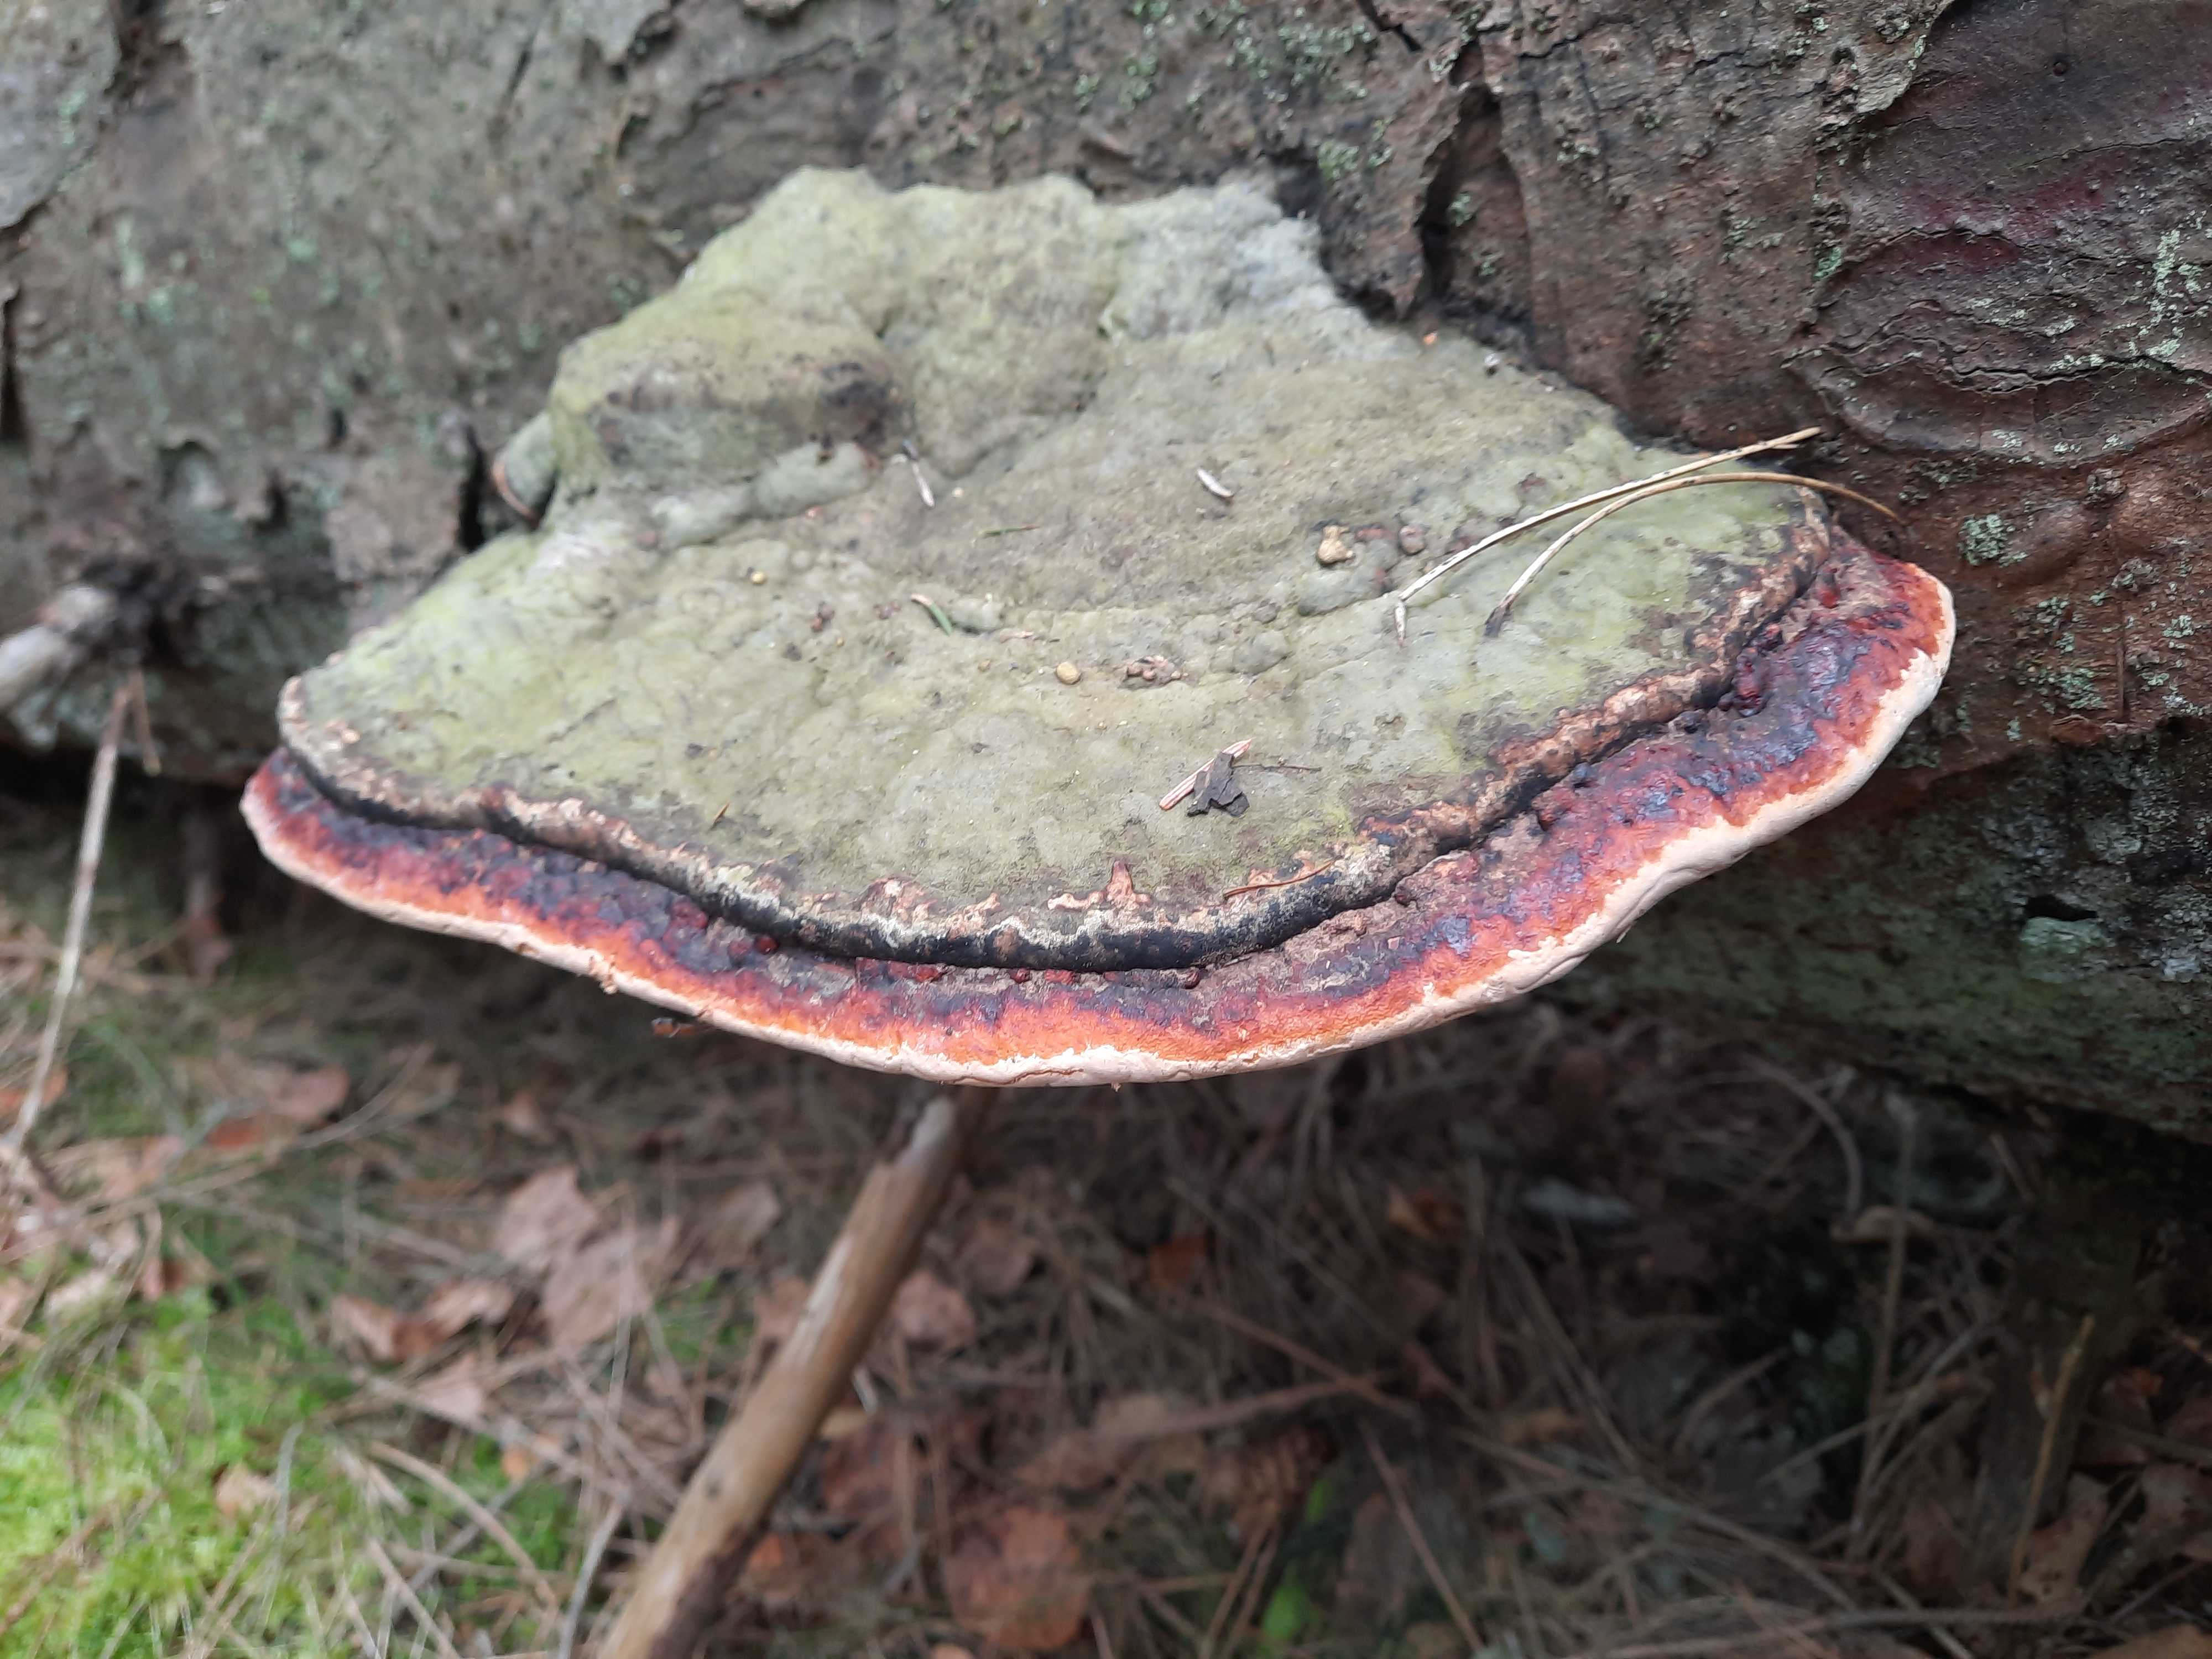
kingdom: Fungi
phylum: Basidiomycota
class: Agaricomycetes
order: Polyporales
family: Fomitopsidaceae
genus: Fomitopsis
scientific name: Fomitopsis pinicola
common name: randbæltet hovporesvamp
